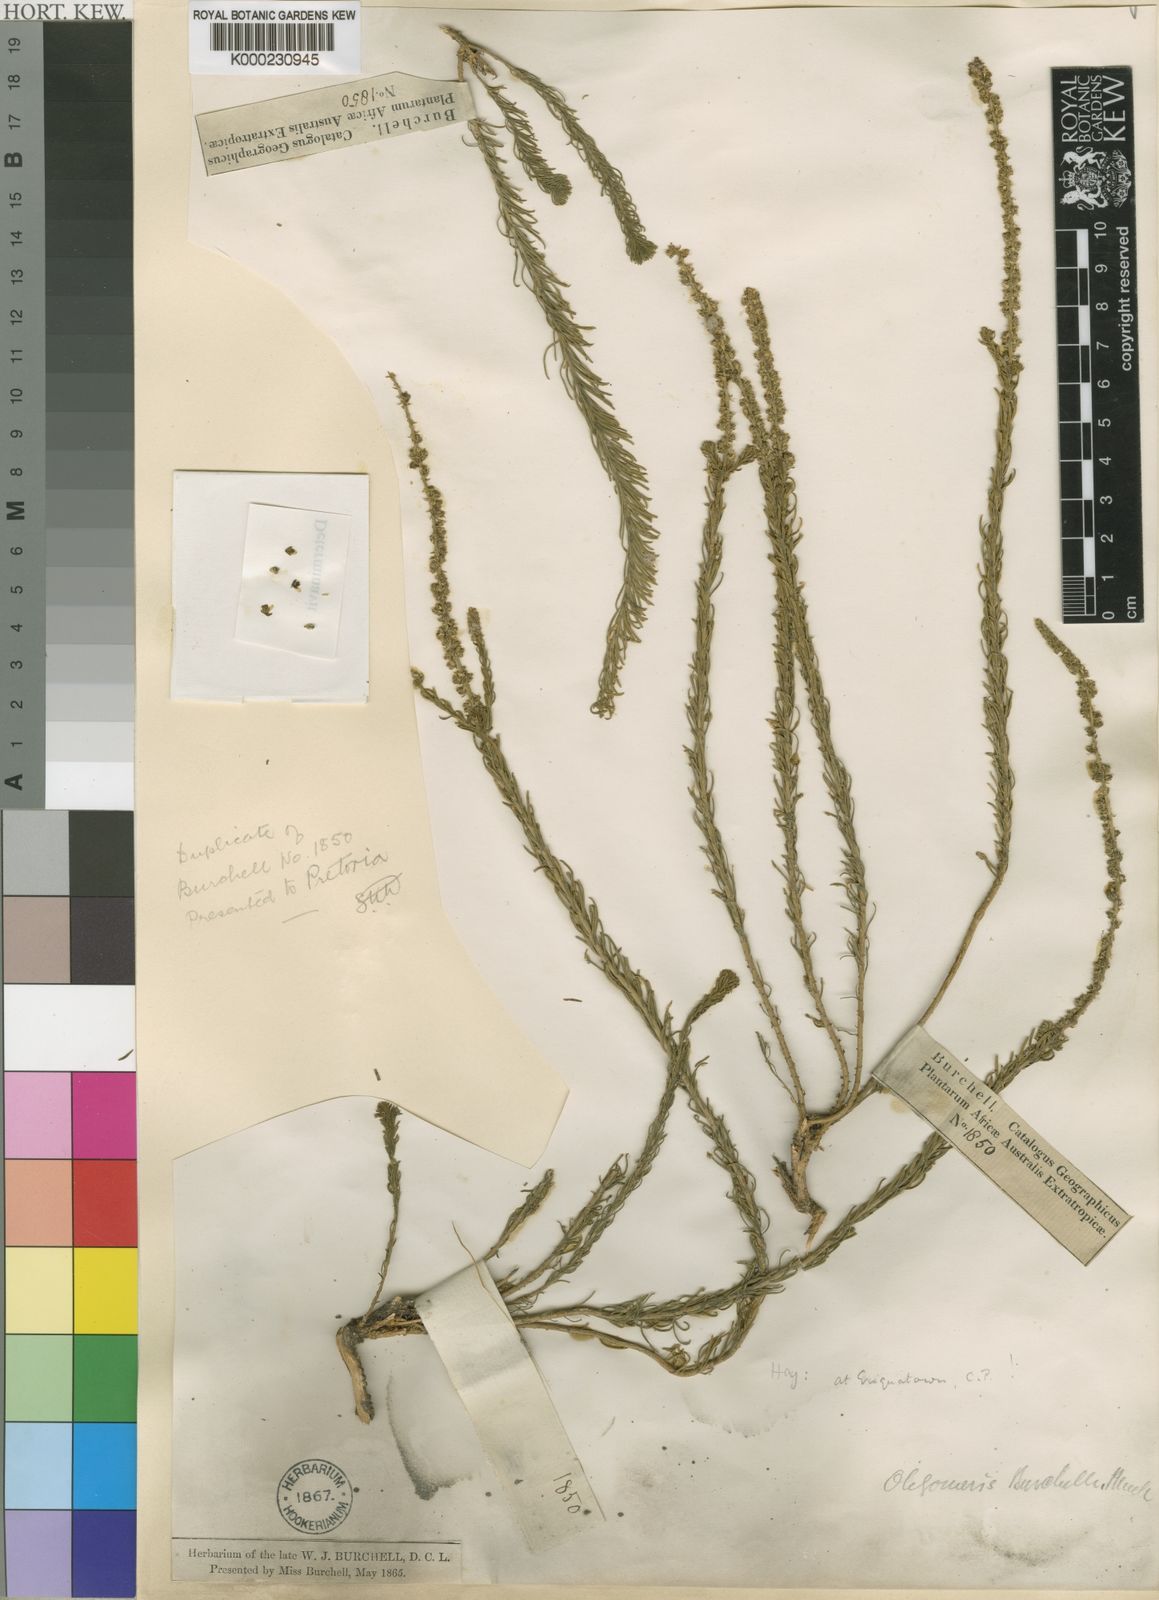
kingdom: Plantae
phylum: Tracheophyta
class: Magnoliopsida
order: Brassicales
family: Resedaceae
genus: Oligomeris
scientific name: Oligomeris dipetala
